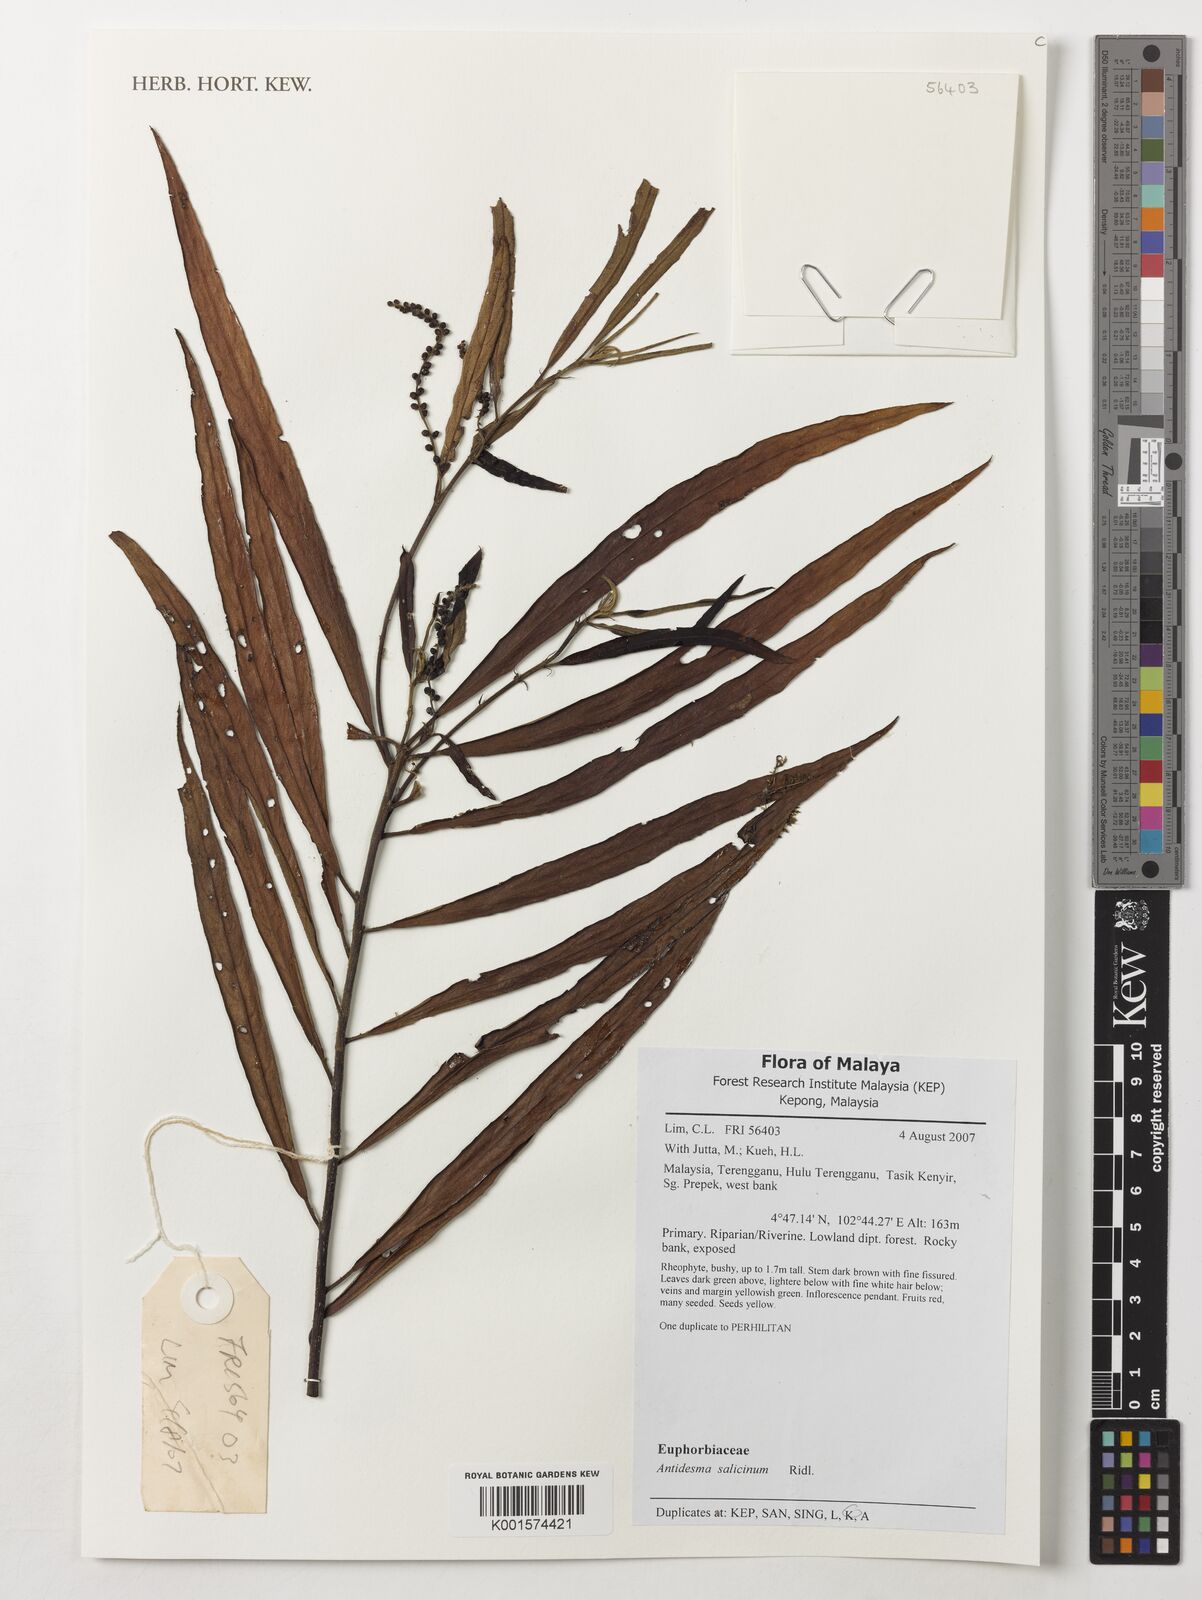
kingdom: Plantae
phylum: Tracheophyta
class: Magnoliopsida
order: Malpighiales
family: Phyllanthaceae
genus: Antidesma
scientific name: Antidesma montanum
